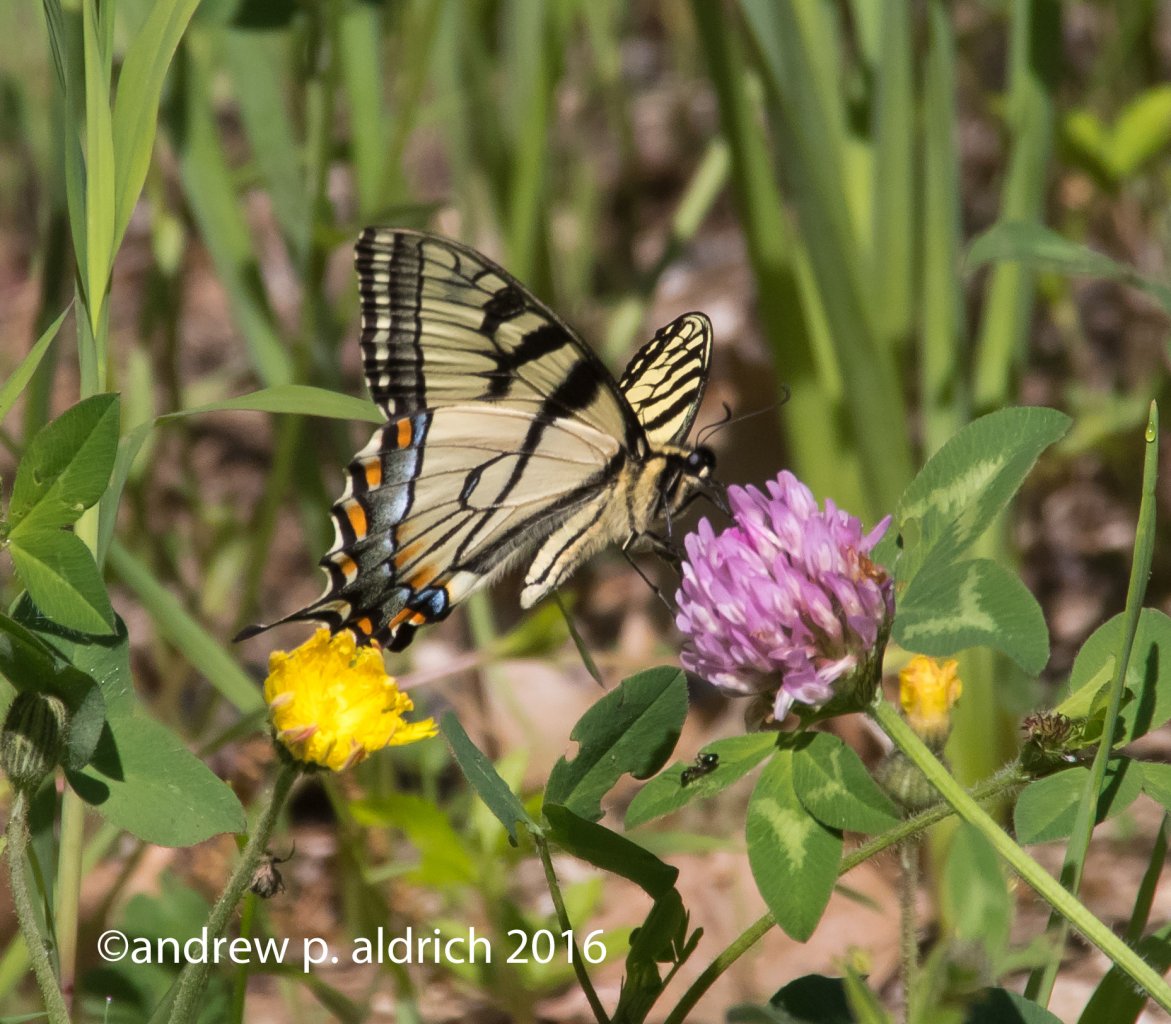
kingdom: Animalia
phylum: Arthropoda
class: Insecta
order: Lepidoptera
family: Papilionidae
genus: Pterourus
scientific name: Pterourus canadensis
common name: Canadian Tiger Swallowtail
